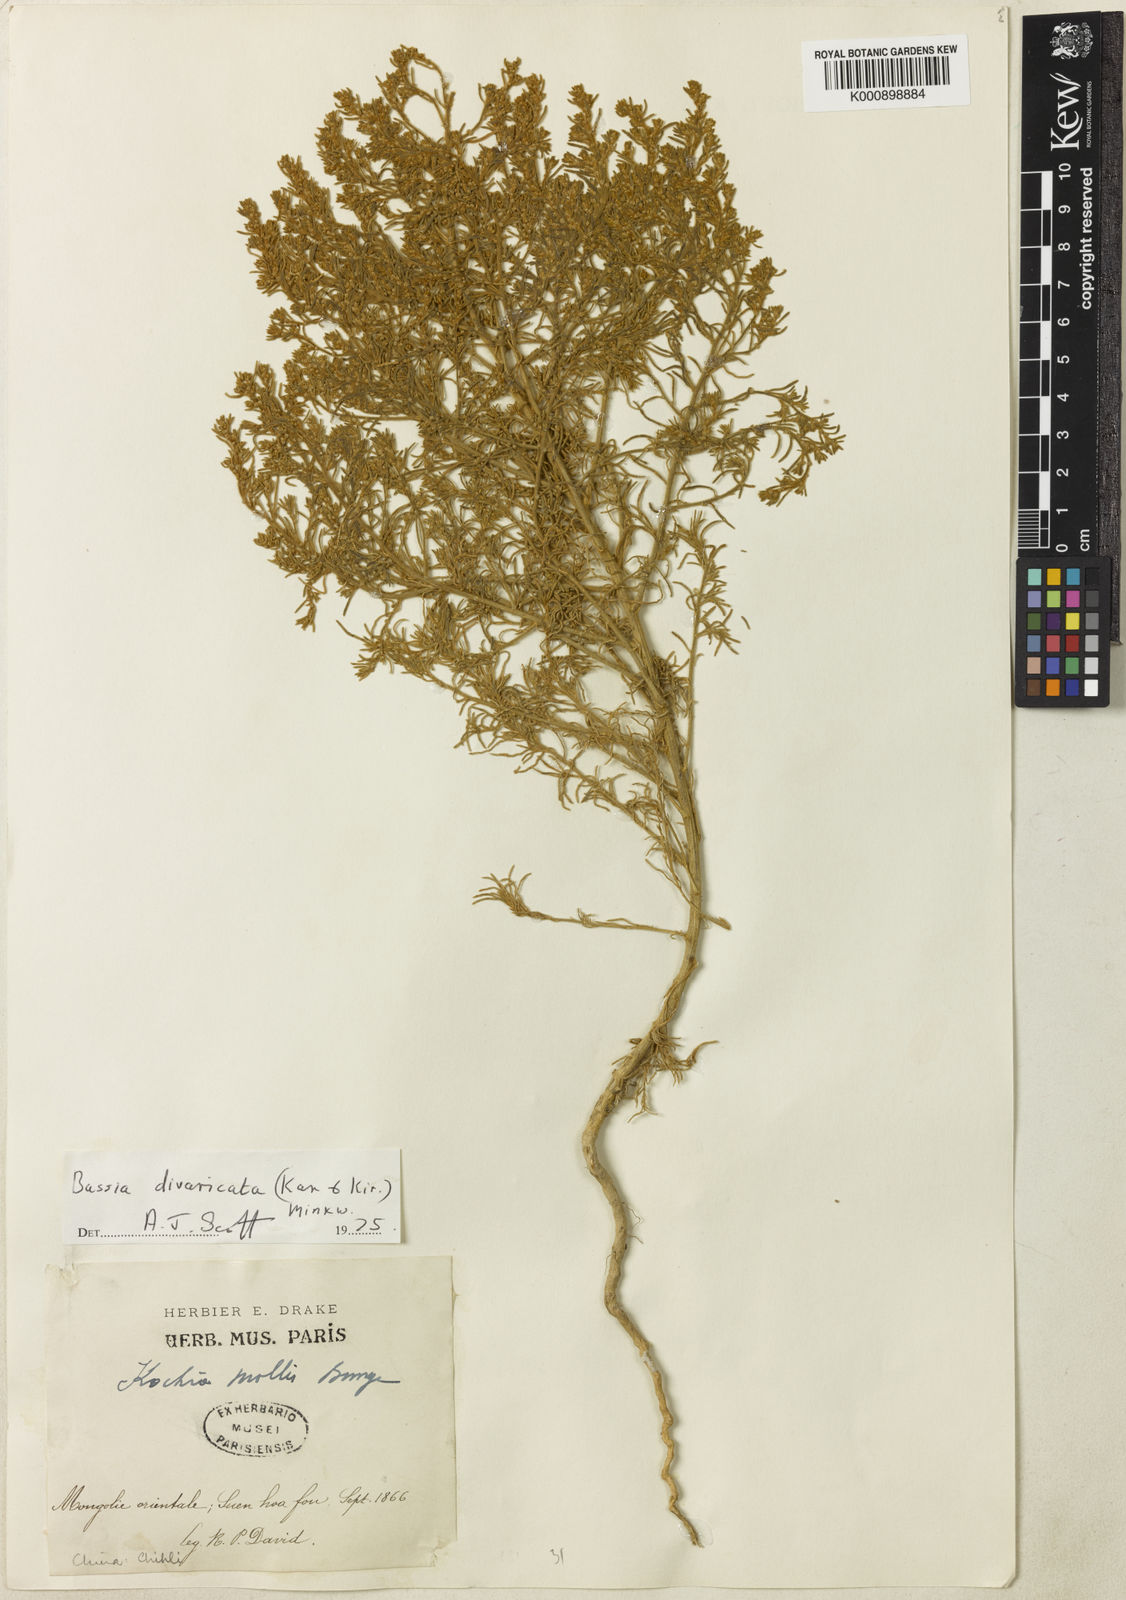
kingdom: Plantae
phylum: Tracheophyta
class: Magnoliopsida
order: Caryophyllales
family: Amaranthaceae
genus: Bassia
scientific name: Bassia
